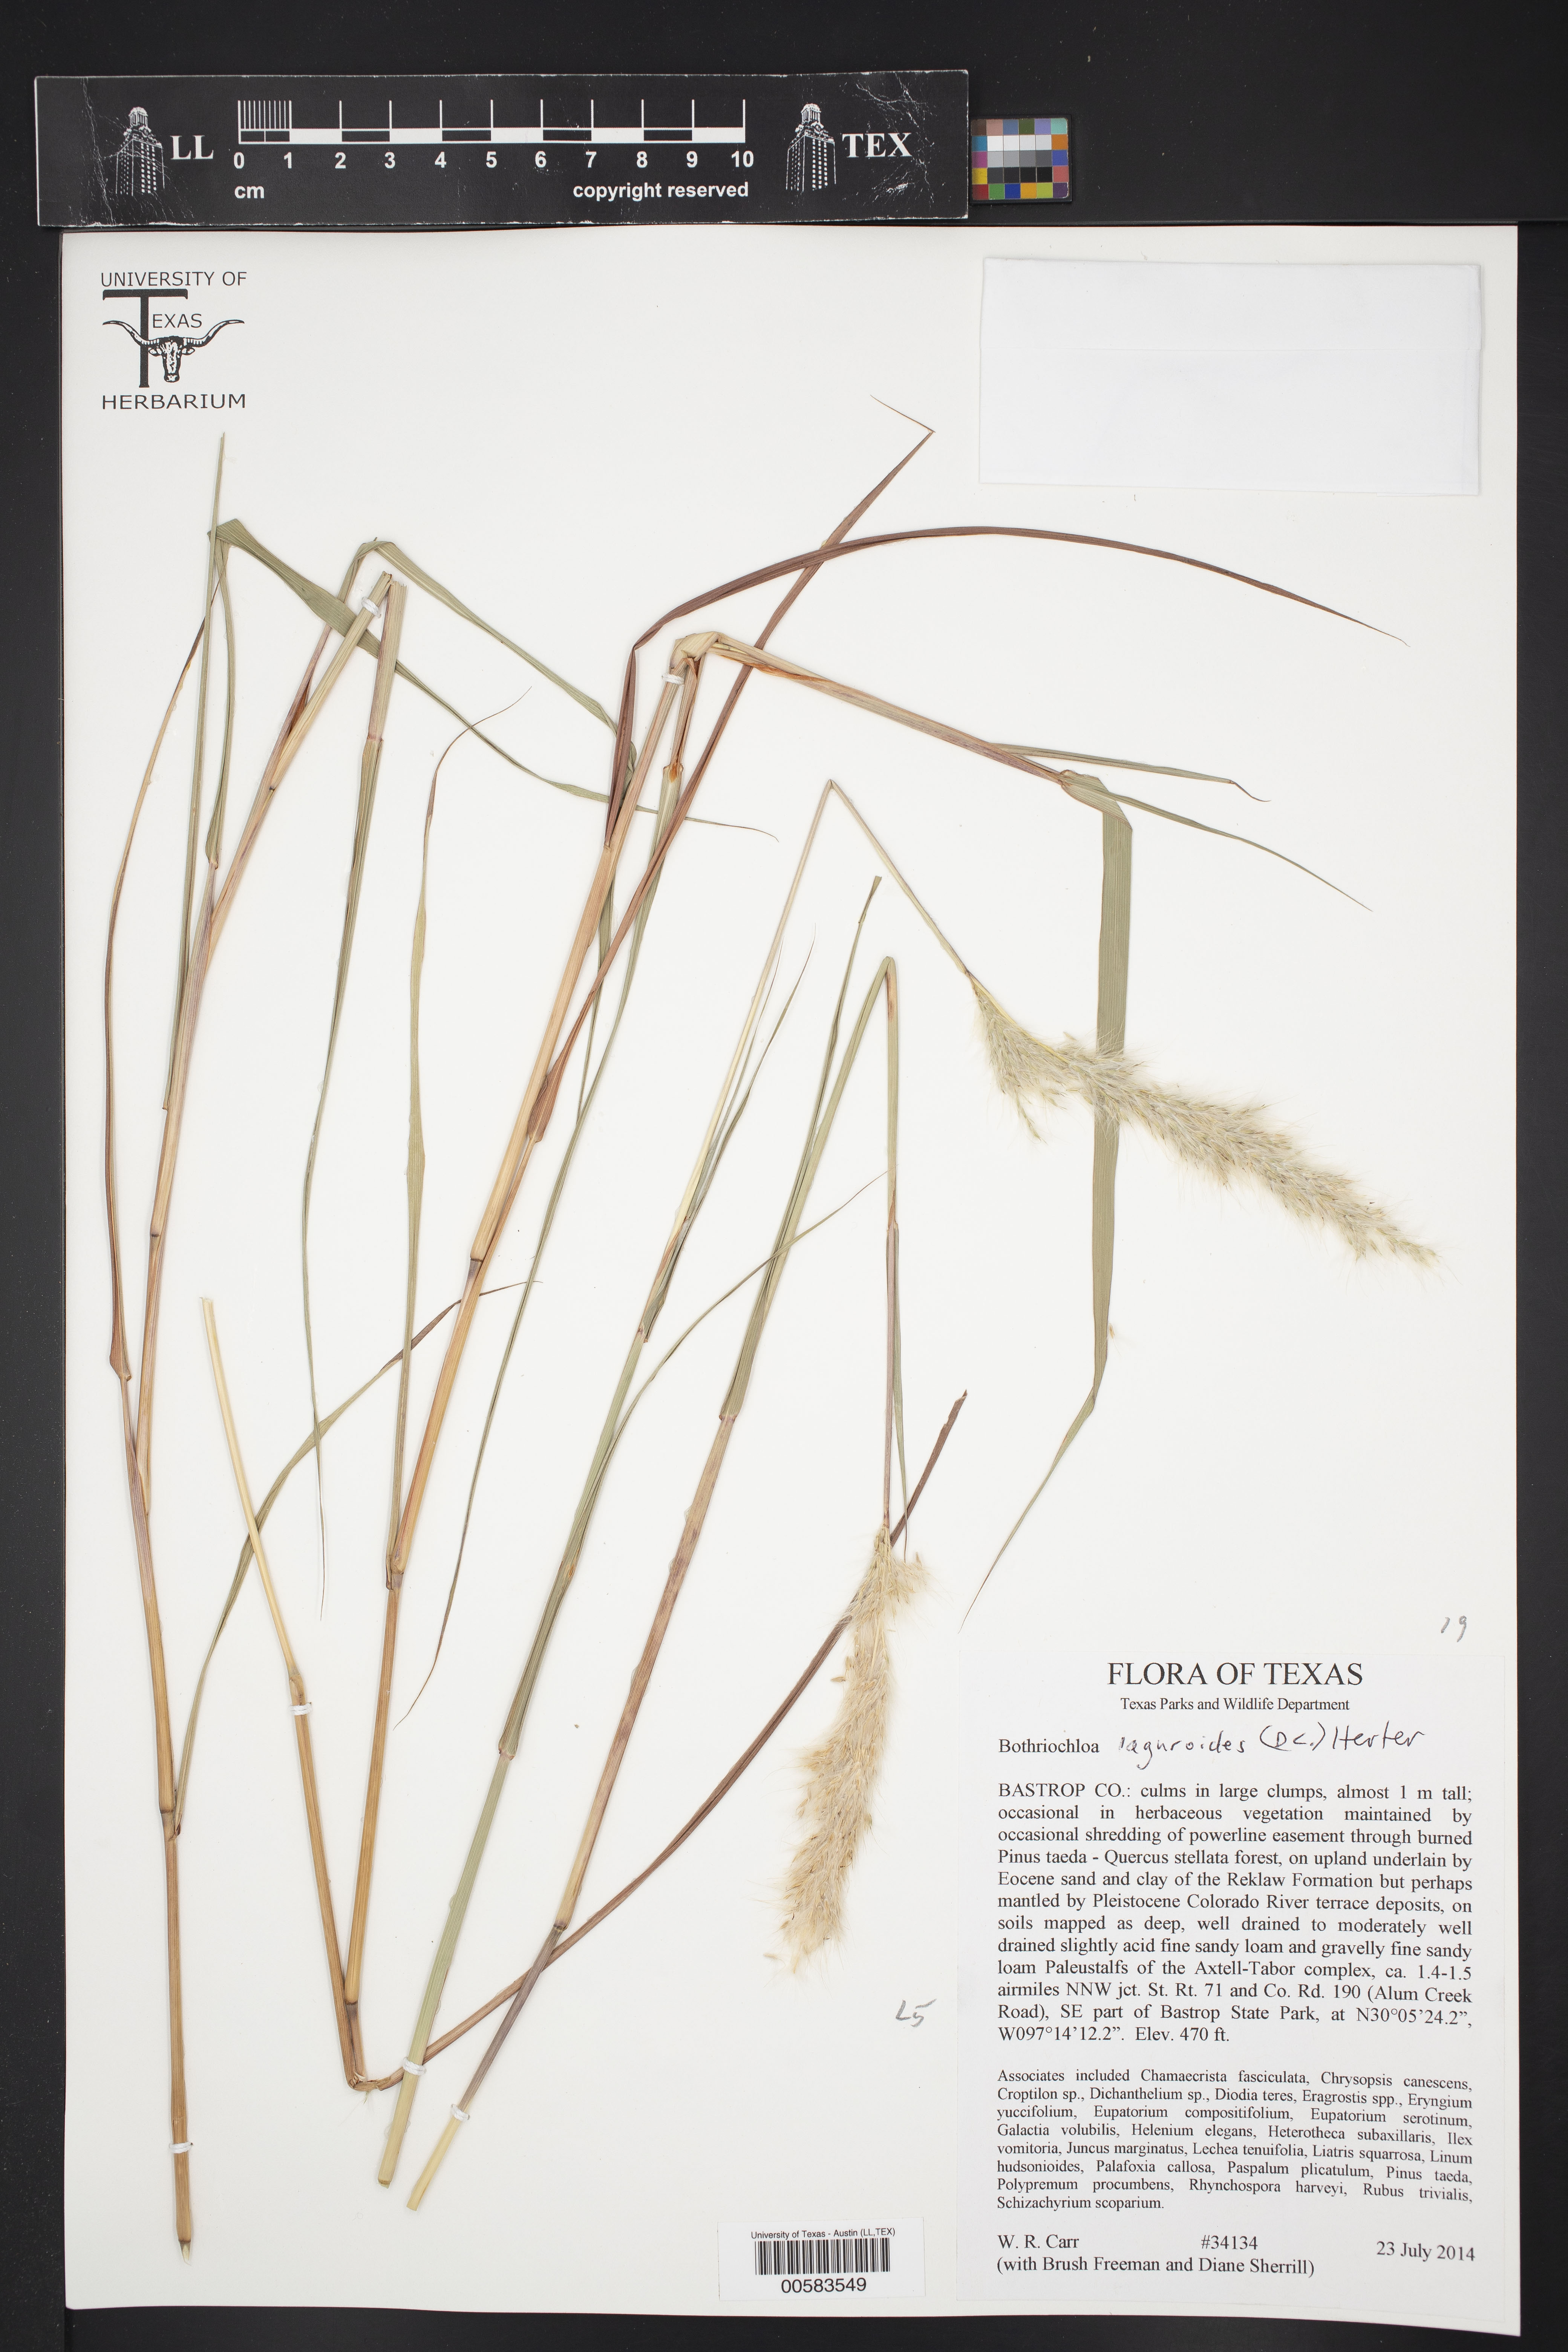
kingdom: Plantae
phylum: Tracheophyta
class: Liliopsida
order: Poales
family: Poaceae
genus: Bothriochloa
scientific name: Bothriochloa laguroides
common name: Silver bluestem
